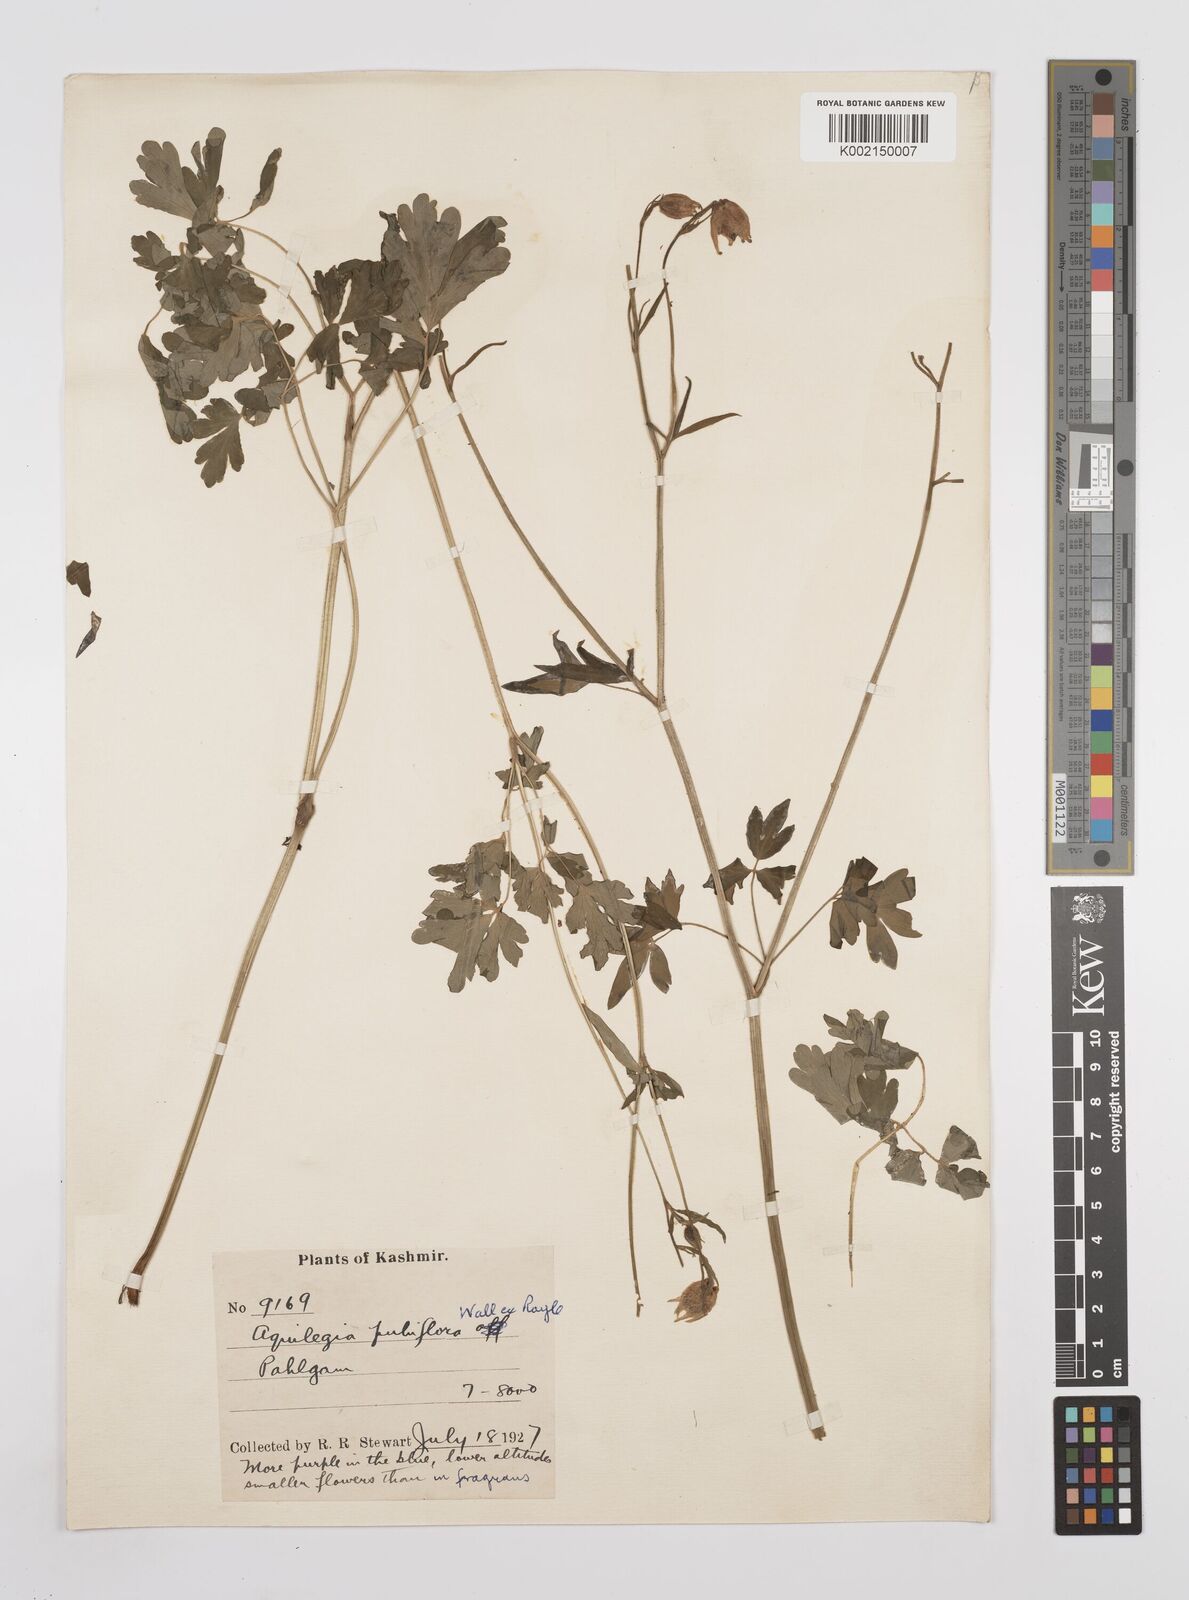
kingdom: Plantae
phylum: Tracheophyta
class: Magnoliopsida
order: Ranunculales
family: Ranunculaceae
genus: Aquilegia
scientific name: Aquilegia pubiflora
